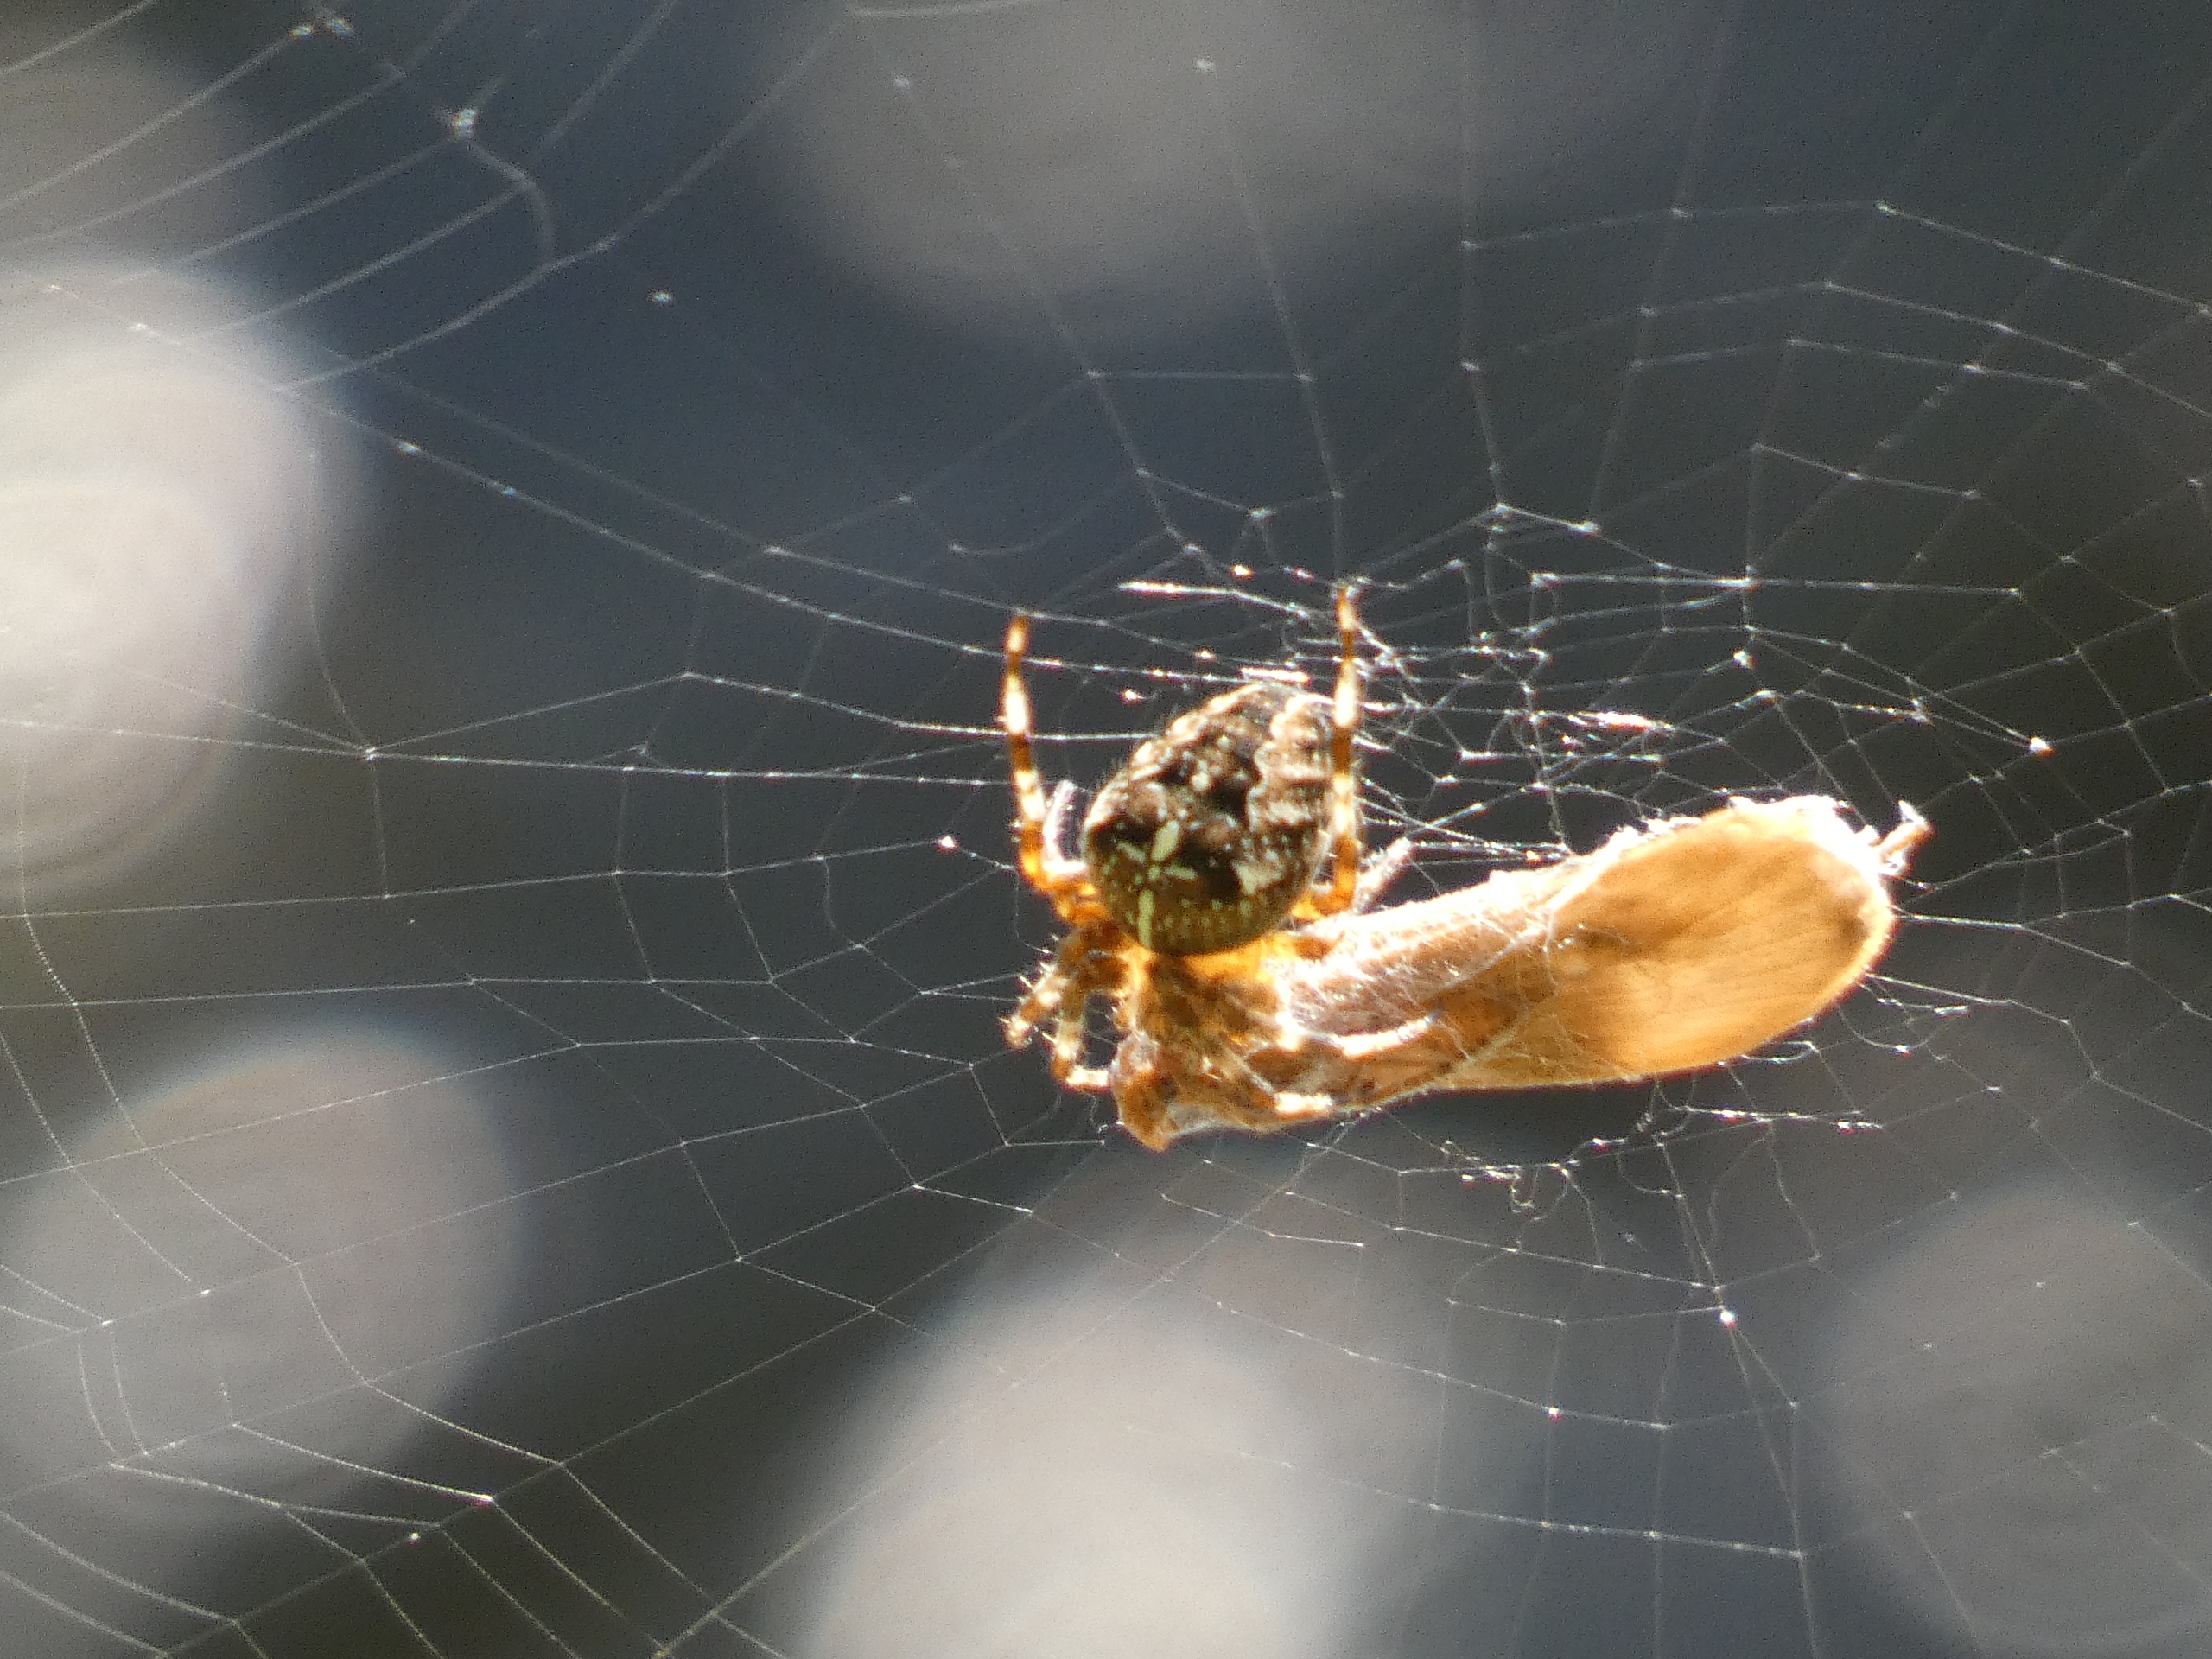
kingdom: Animalia
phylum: Arthropoda
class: Arachnida
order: Araneae
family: Araneidae
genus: Araneus
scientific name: Araneus diadematus
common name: Korsedderkop
